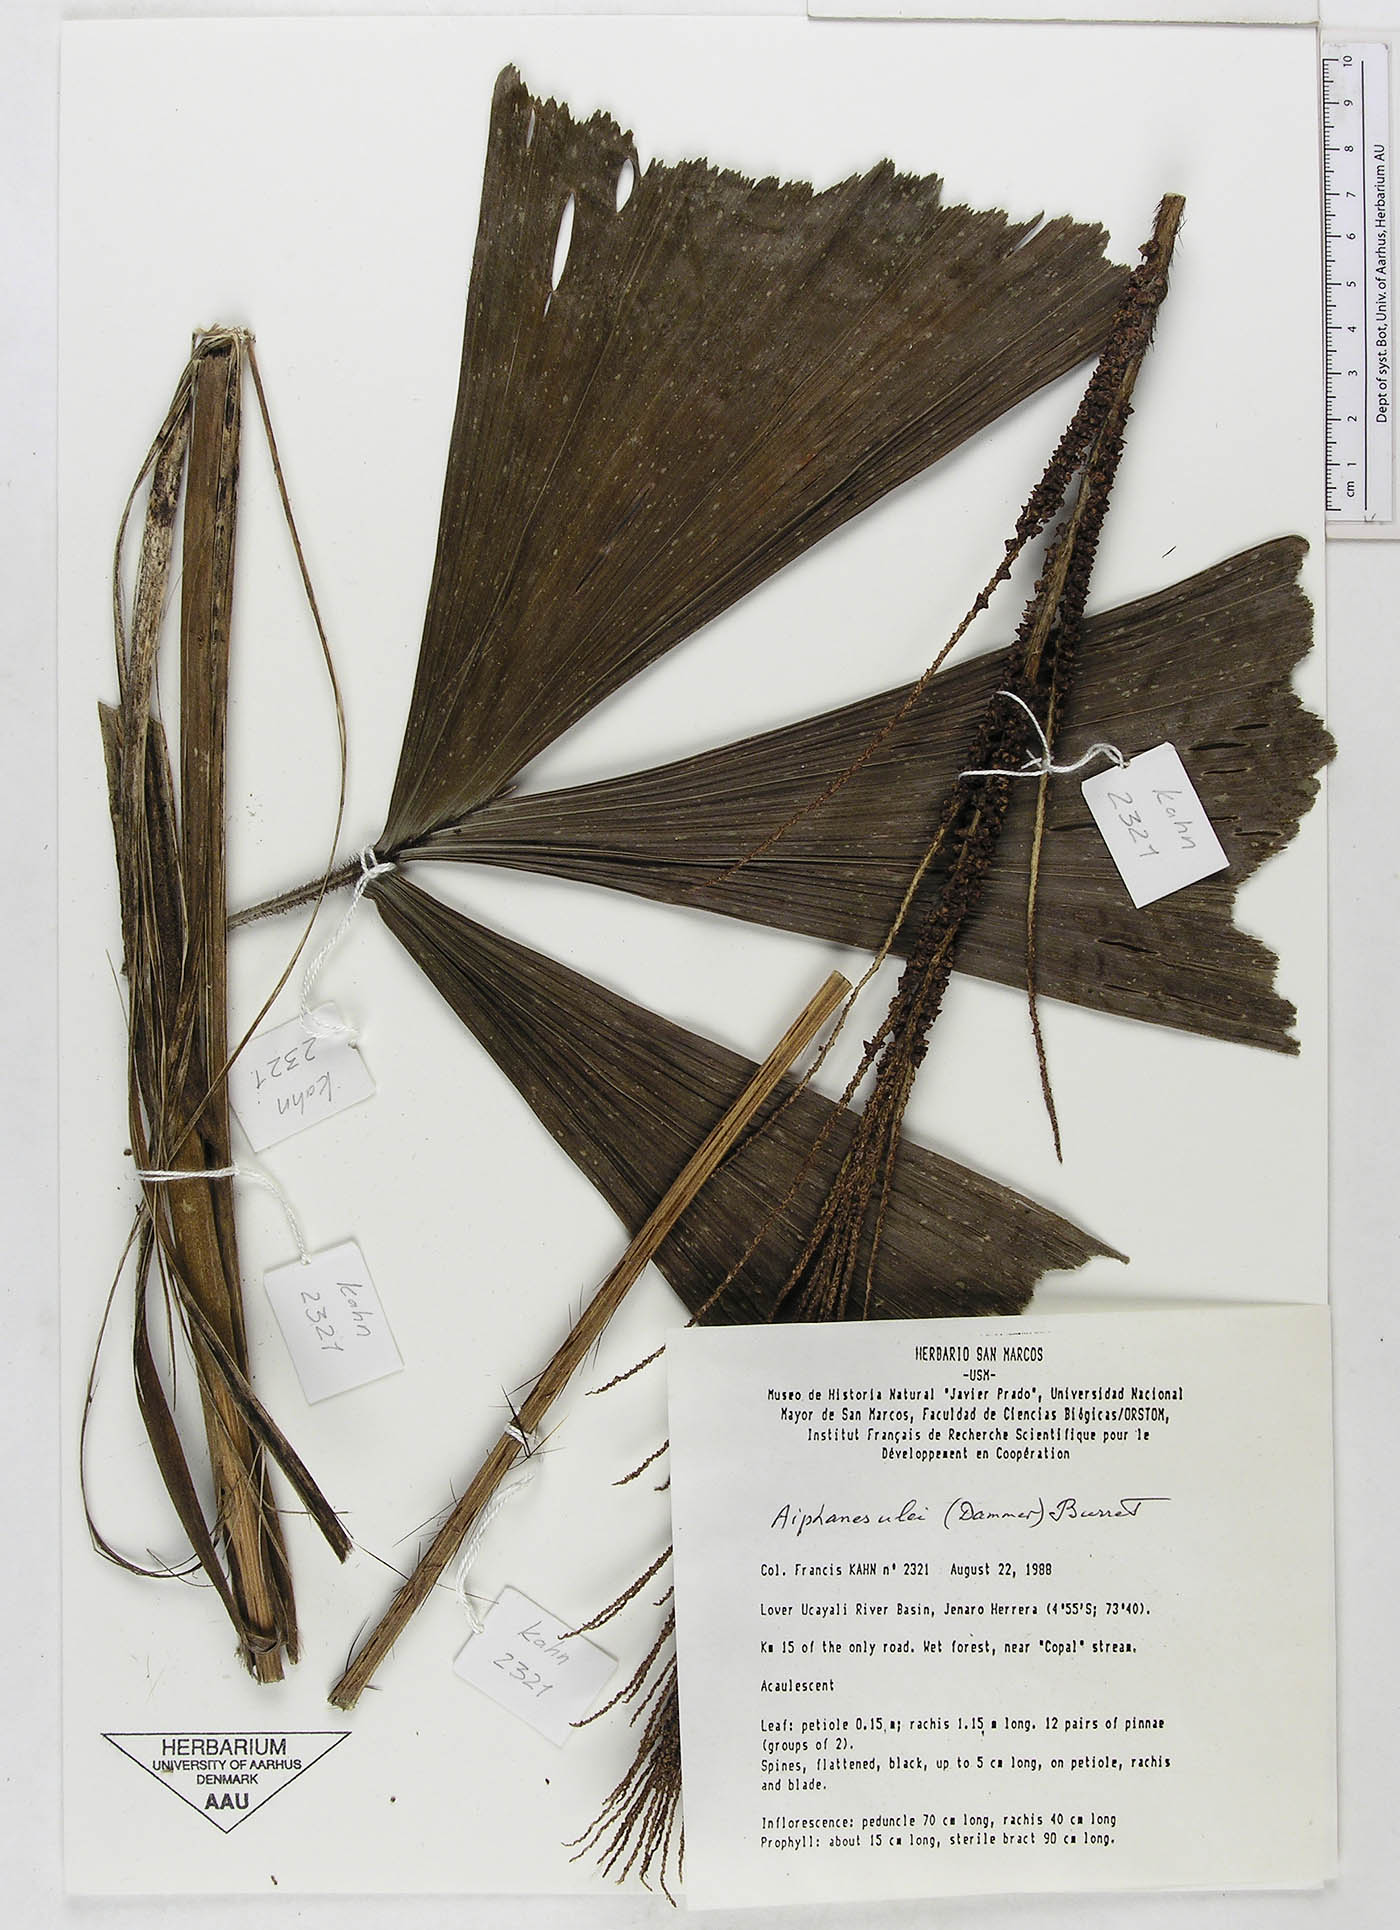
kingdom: Plantae
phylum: Tracheophyta
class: Liliopsida
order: Arecales
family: Arecaceae
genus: Aiphanes
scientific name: Aiphanes ulei
